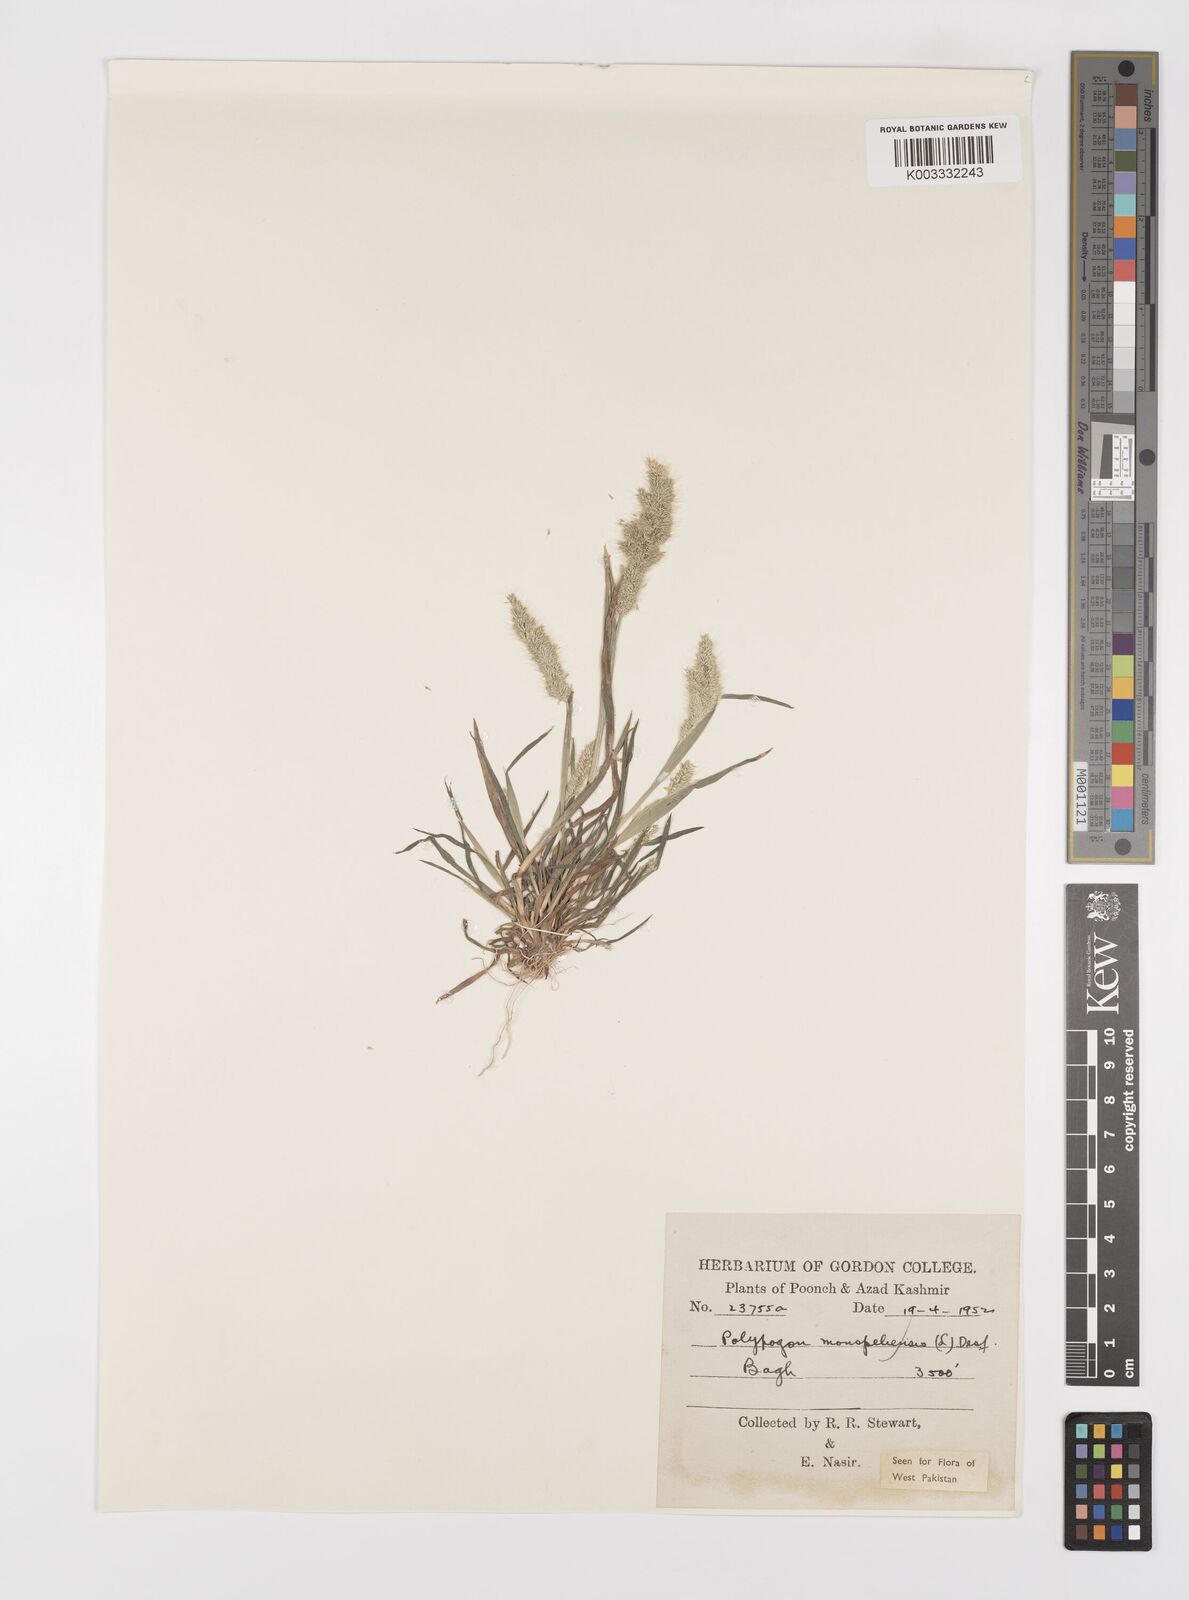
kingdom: Plantae
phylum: Tracheophyta
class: Liliopsida
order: Poales
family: Poaceae
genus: Polypogon
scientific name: Polypogon monspeliensis
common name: Annual rabbitsfoot grass
